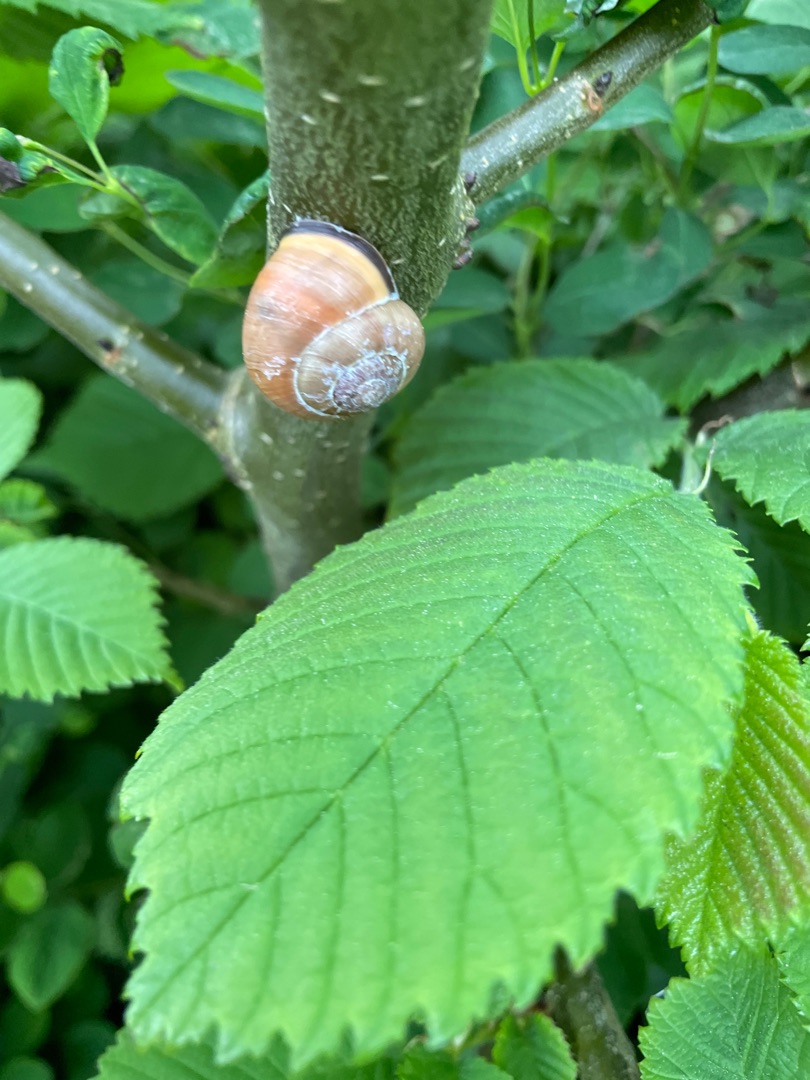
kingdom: Animalia
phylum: Mollusca
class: Gastropoda
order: Stylommatophora
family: Helicidae
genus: Cepaea
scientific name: Cepaea nemoralis
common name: Lundsnegl
